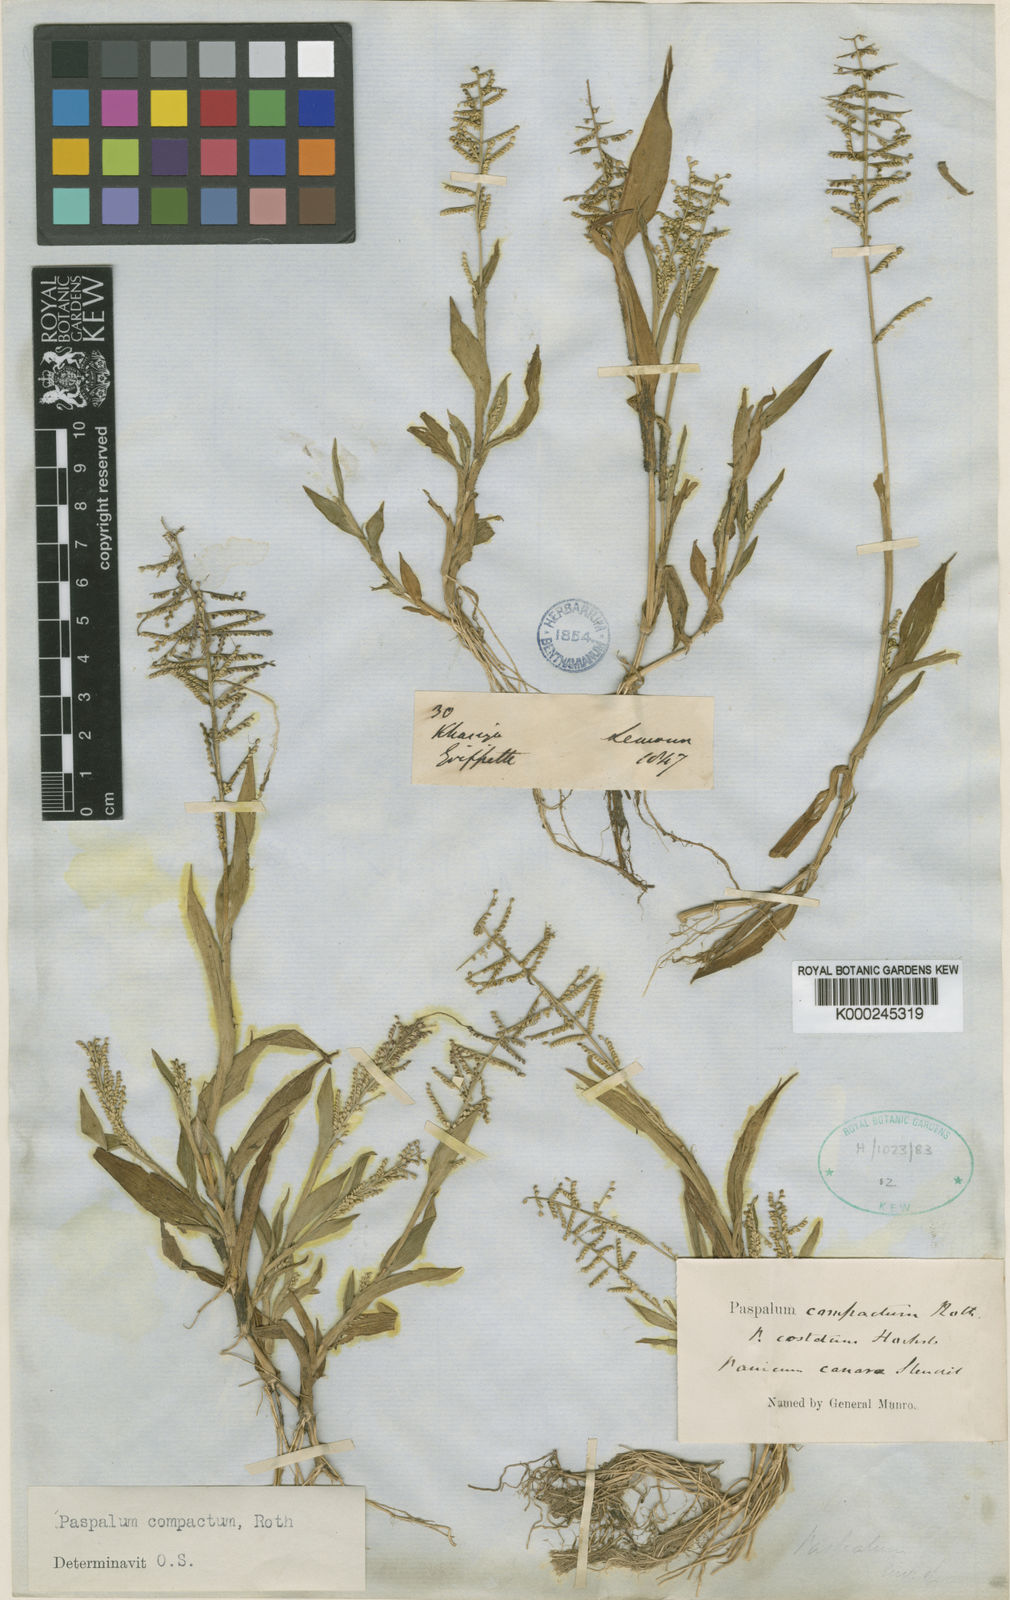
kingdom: Plantae
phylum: Tracheophyta
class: Liliopsida
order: Poales
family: Poaceae
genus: Paspalum
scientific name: Paspalum canarae
